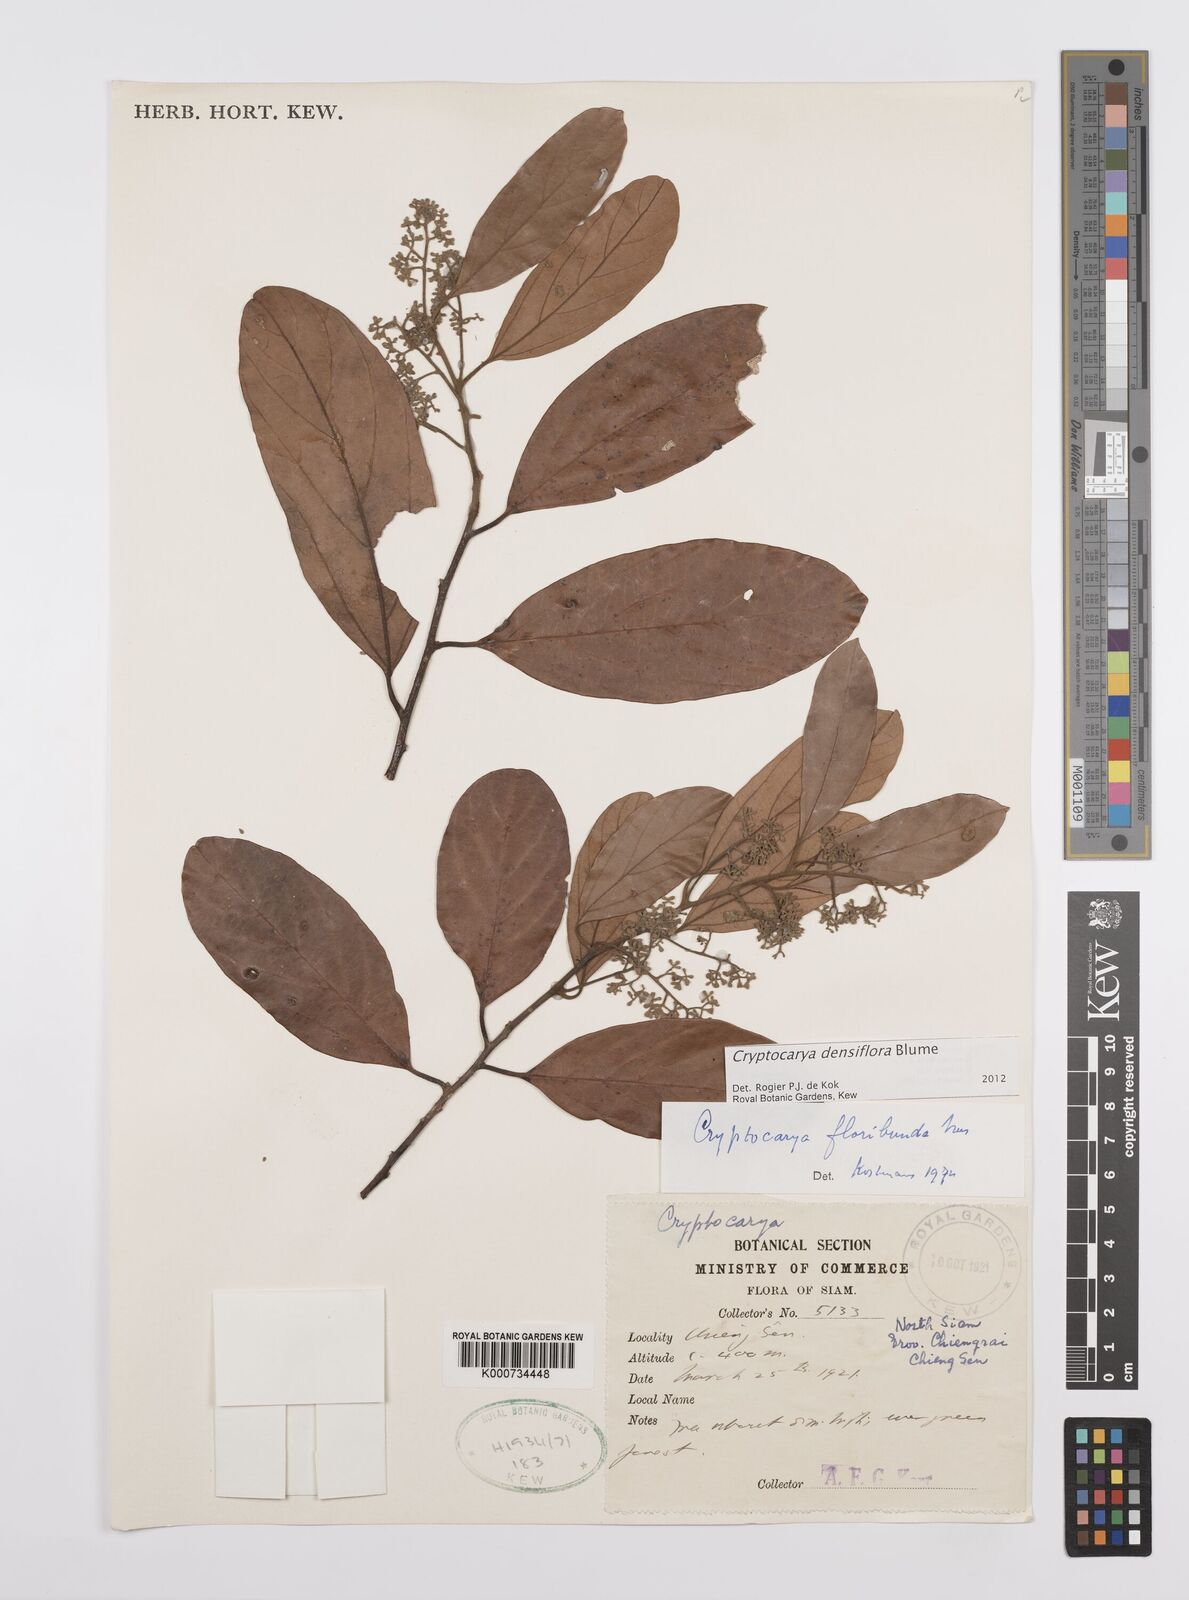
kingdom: Plantae
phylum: Tracheophyta
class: Magnoliopsida
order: Laurales
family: Lauraceae
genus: Cryptocarya
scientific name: Cryptocarya densiflora
